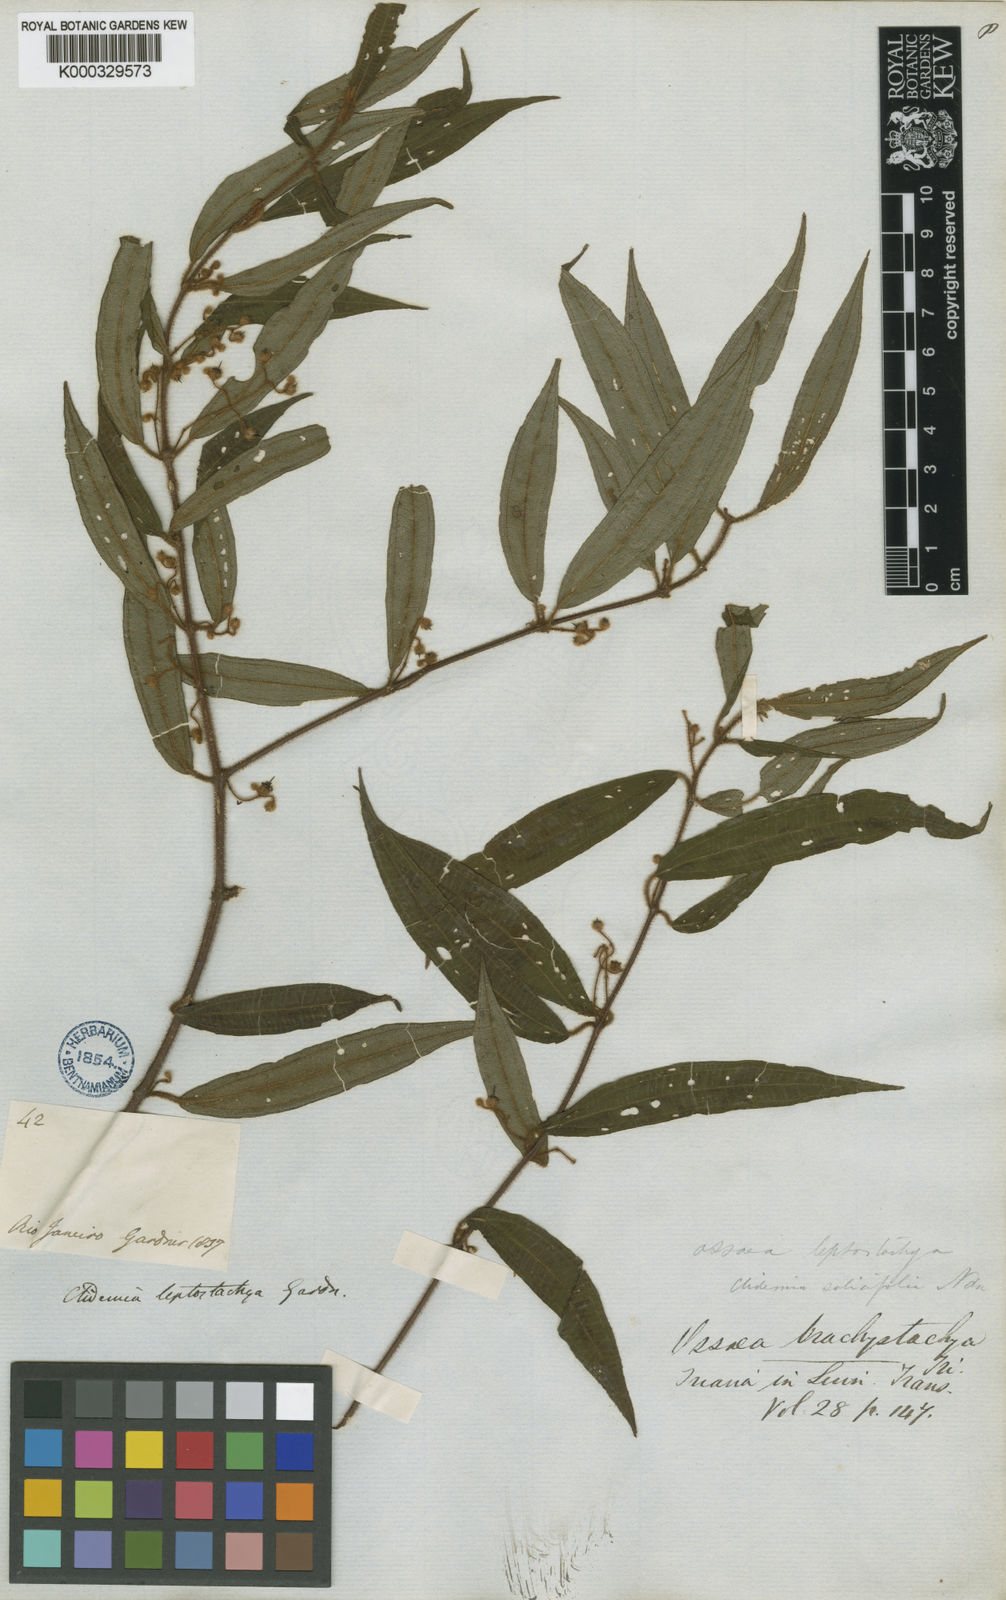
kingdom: Plantae
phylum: Tracheophyta
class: Magnoliopsida
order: Myrtales
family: Melastomataceae
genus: Miconia
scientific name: Miconia amygdaloides
